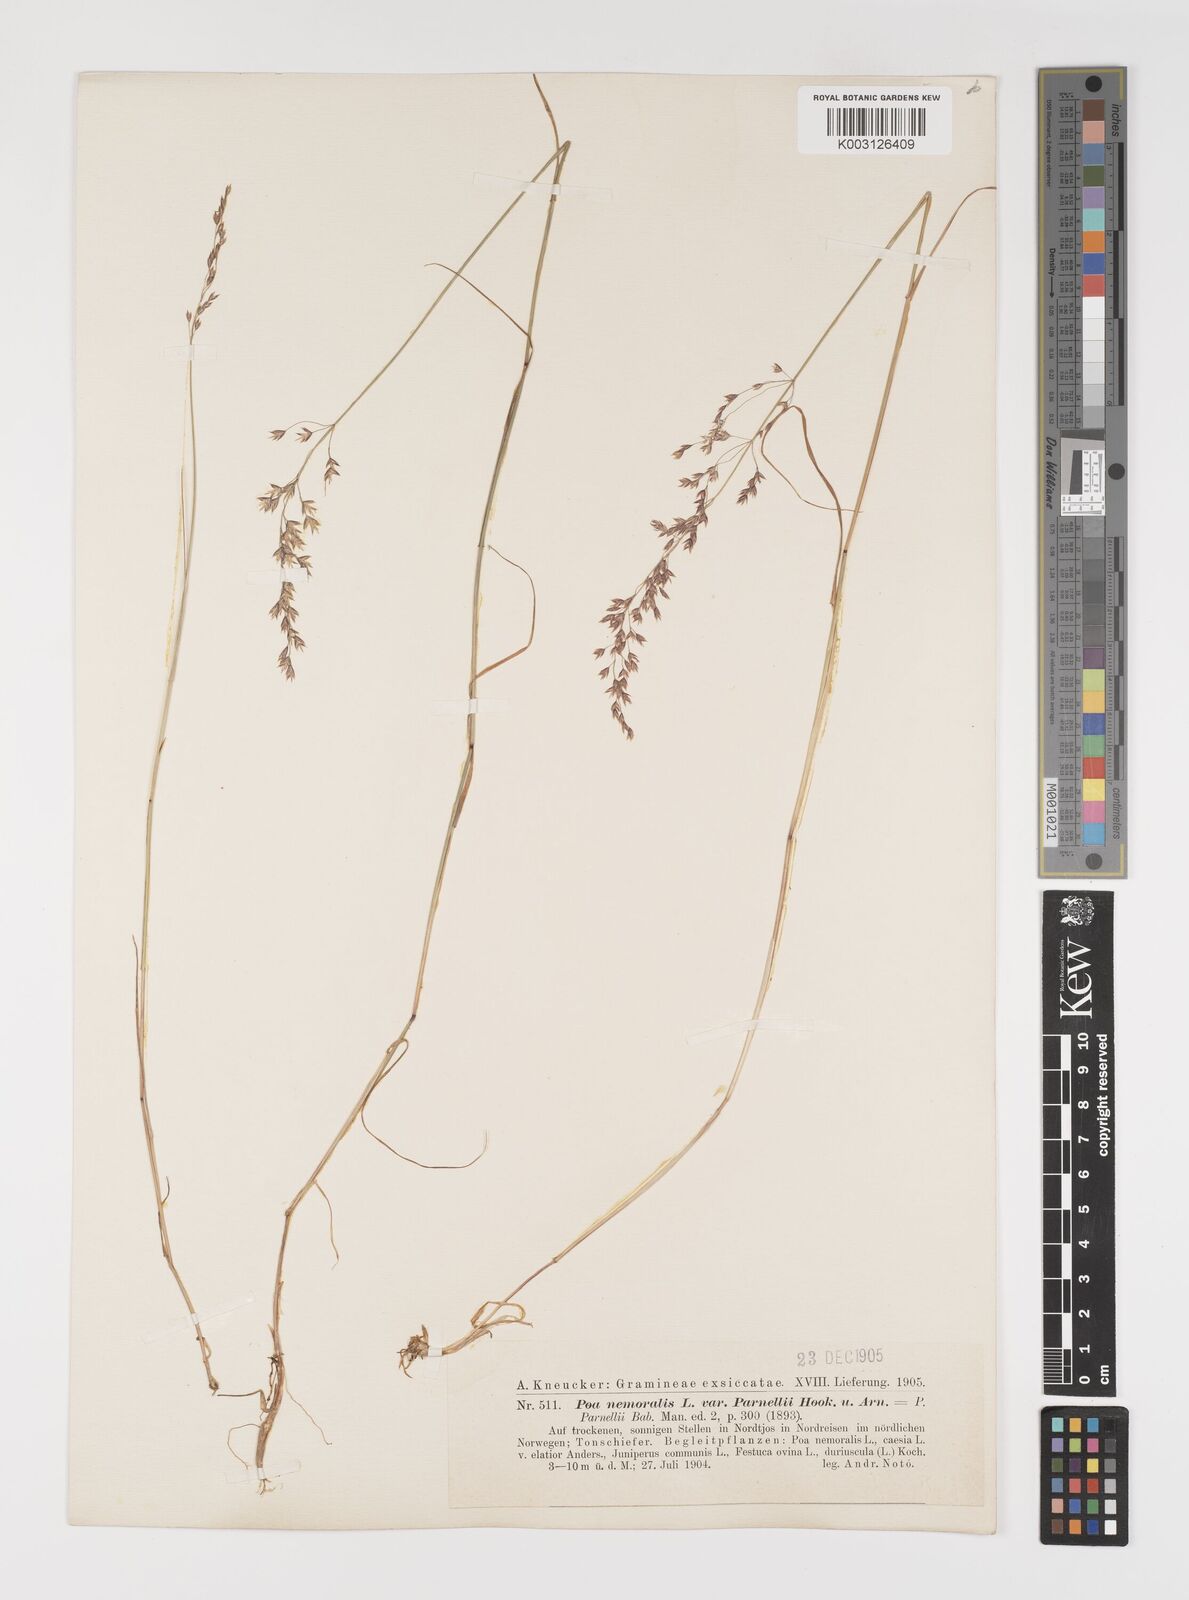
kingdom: Plantae
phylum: Tracheophyta
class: Liliopsida
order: Poales
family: Poaceae
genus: Poa
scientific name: Poa nemoralis
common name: Wood bluegrass
